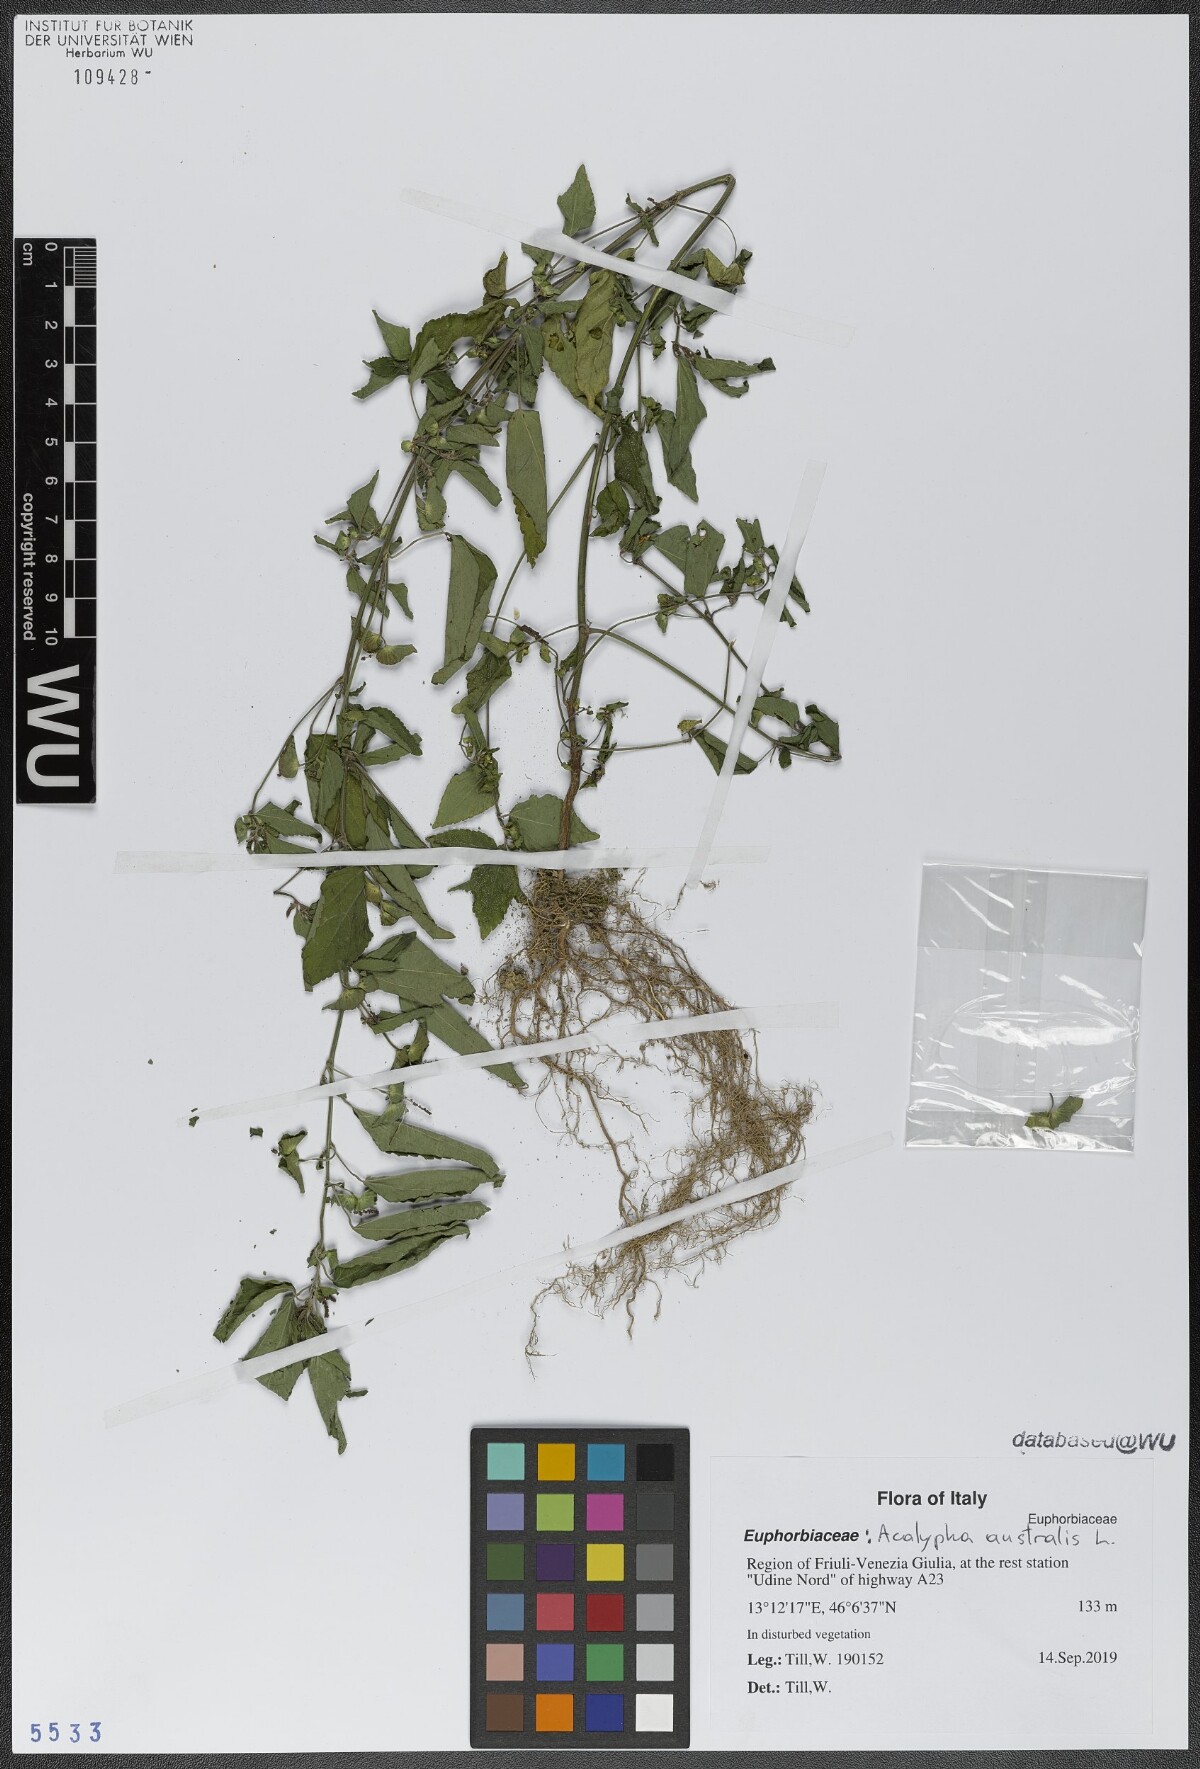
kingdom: Plantae
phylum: Tracheophyta
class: Magnoliopsida
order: Malpighiales
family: Euphorbiaceae
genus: Acalypha
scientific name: Acalypha australis
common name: Asian copperleaf
